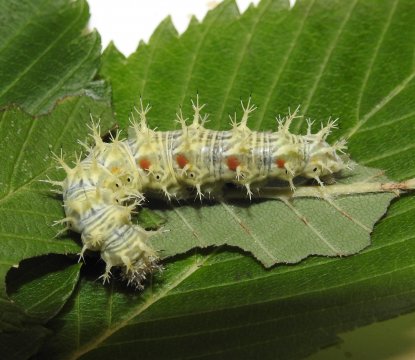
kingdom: Animalia
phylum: Arthropoda
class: Insecta
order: Lepidoptera
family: Nymphalidae
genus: Polygonia
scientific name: Polygonia comma
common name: Eastern Comma
